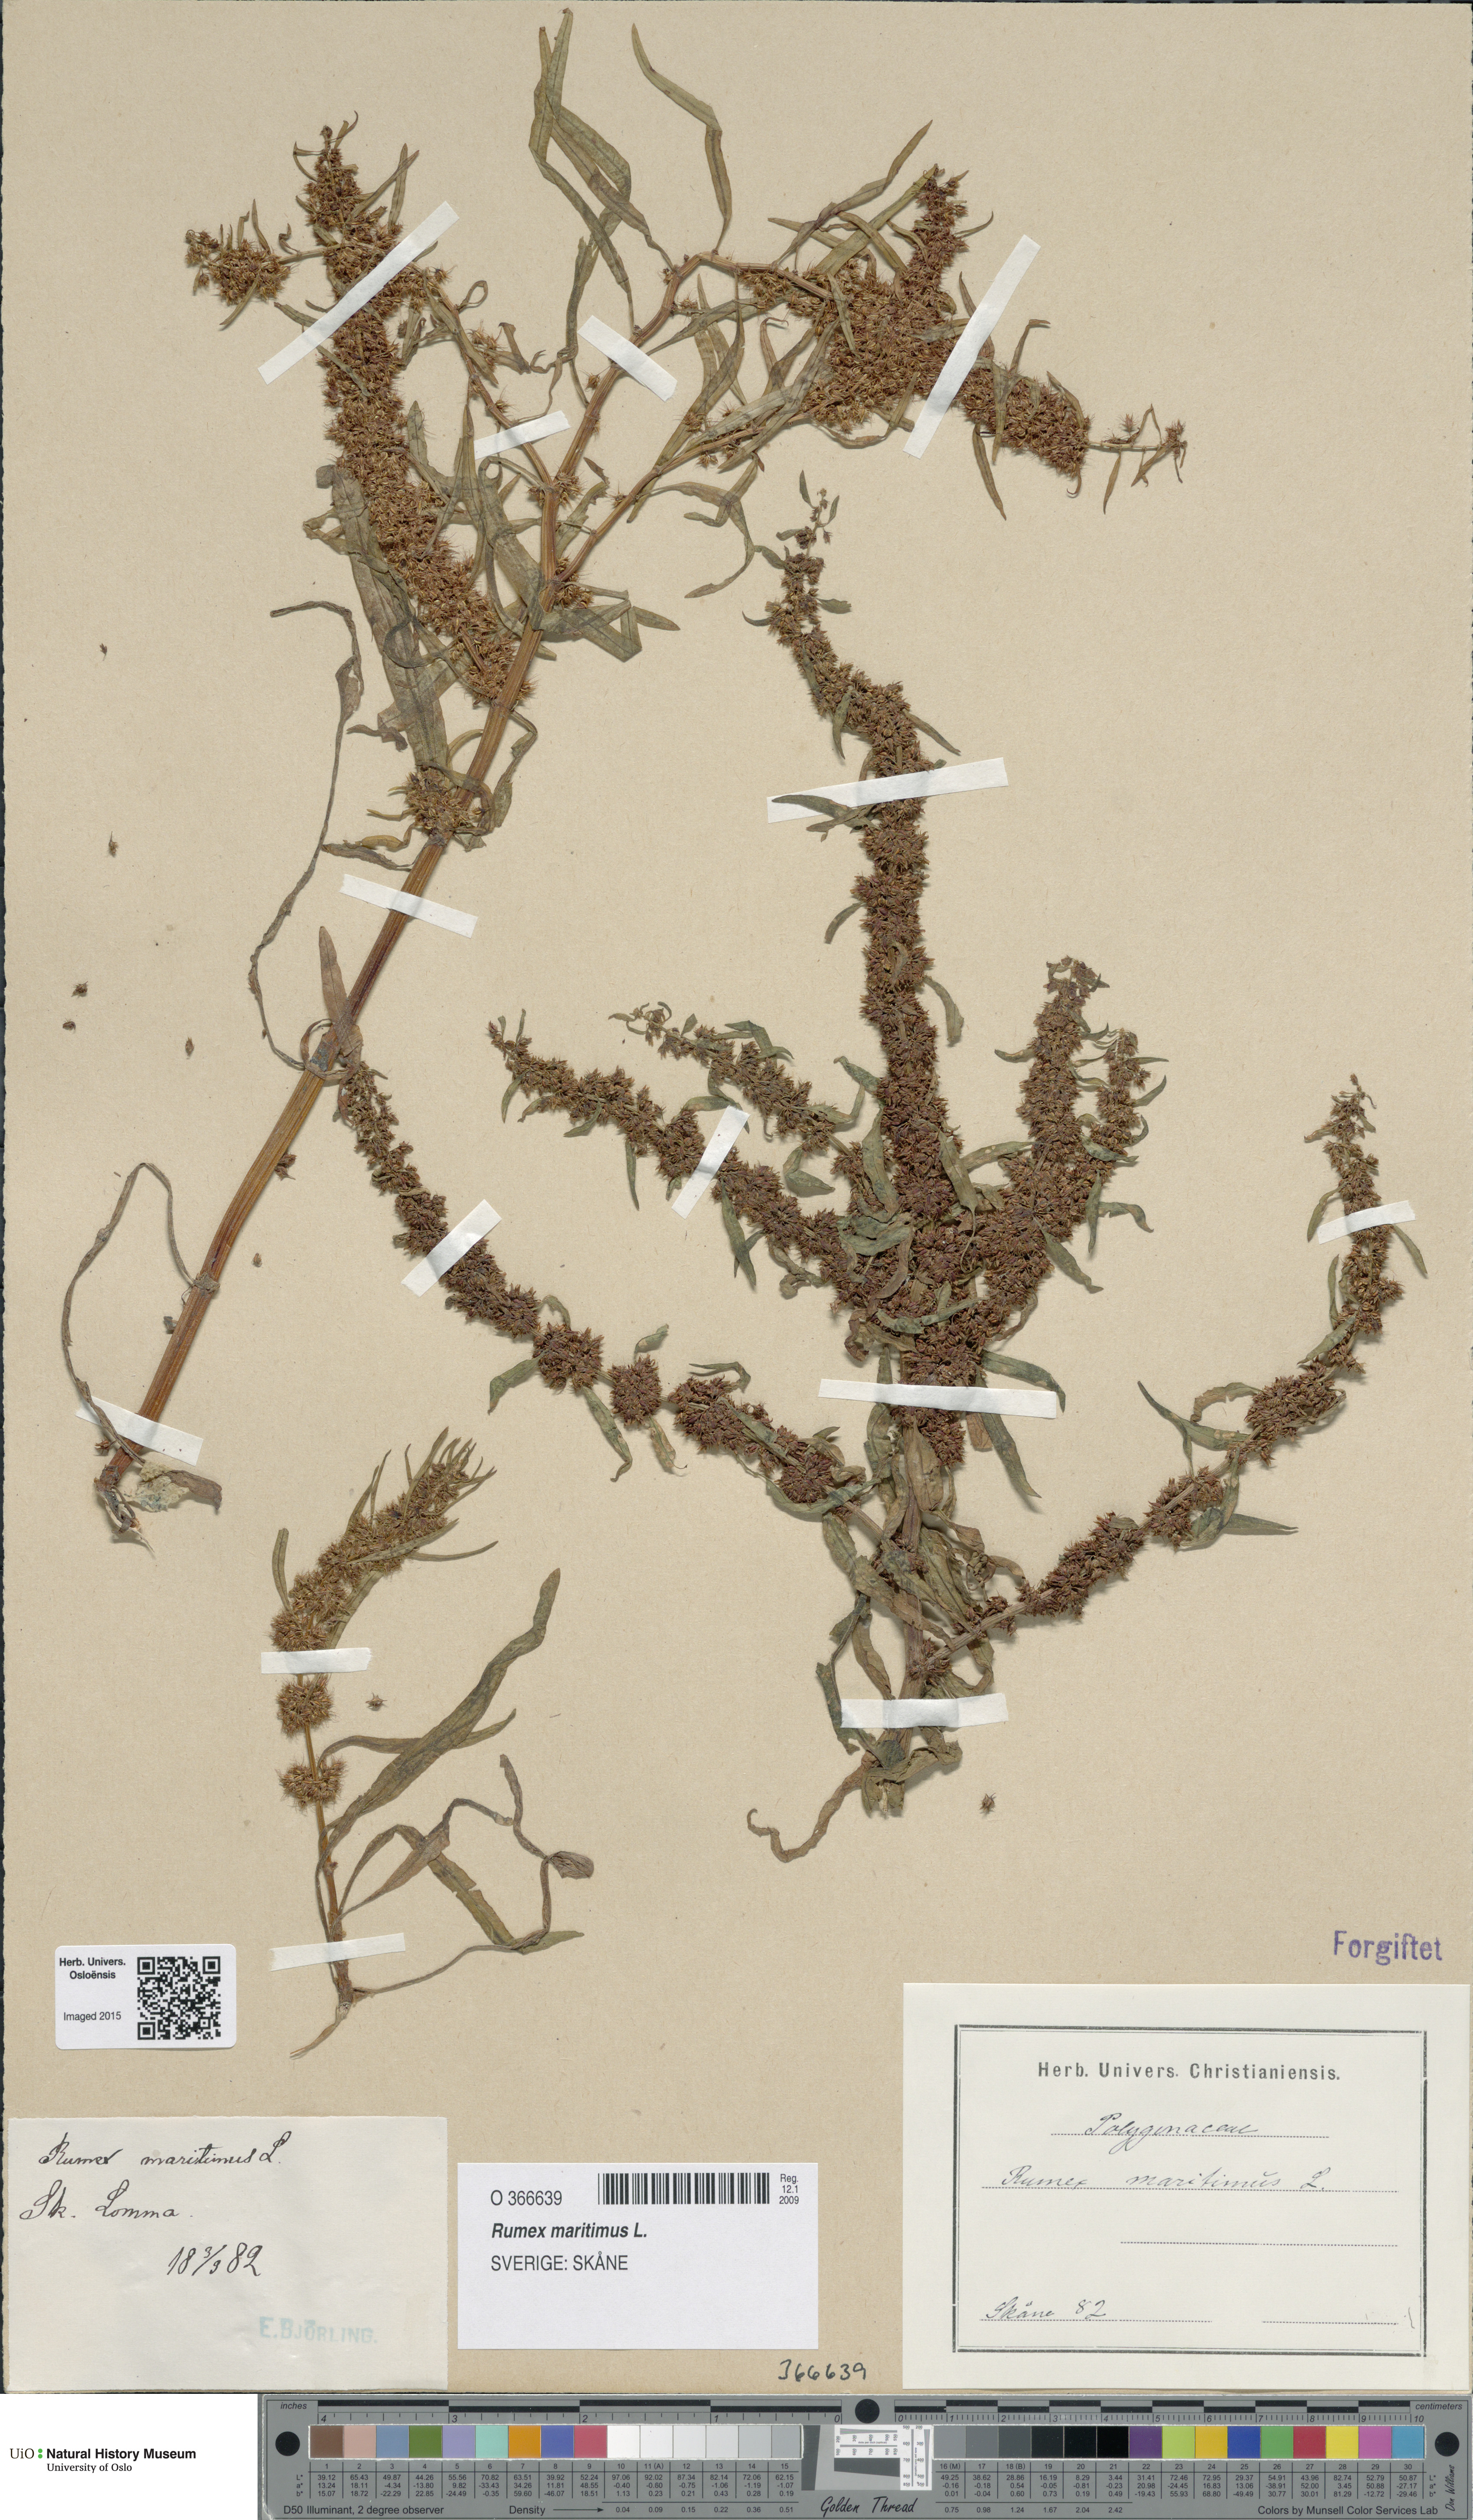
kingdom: Plantae
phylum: Tracheophyta
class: Magnoliopsida
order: Caryophyllales
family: Polygonaceae
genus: Rumex
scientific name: Rumex maritimus
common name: Golden dock
